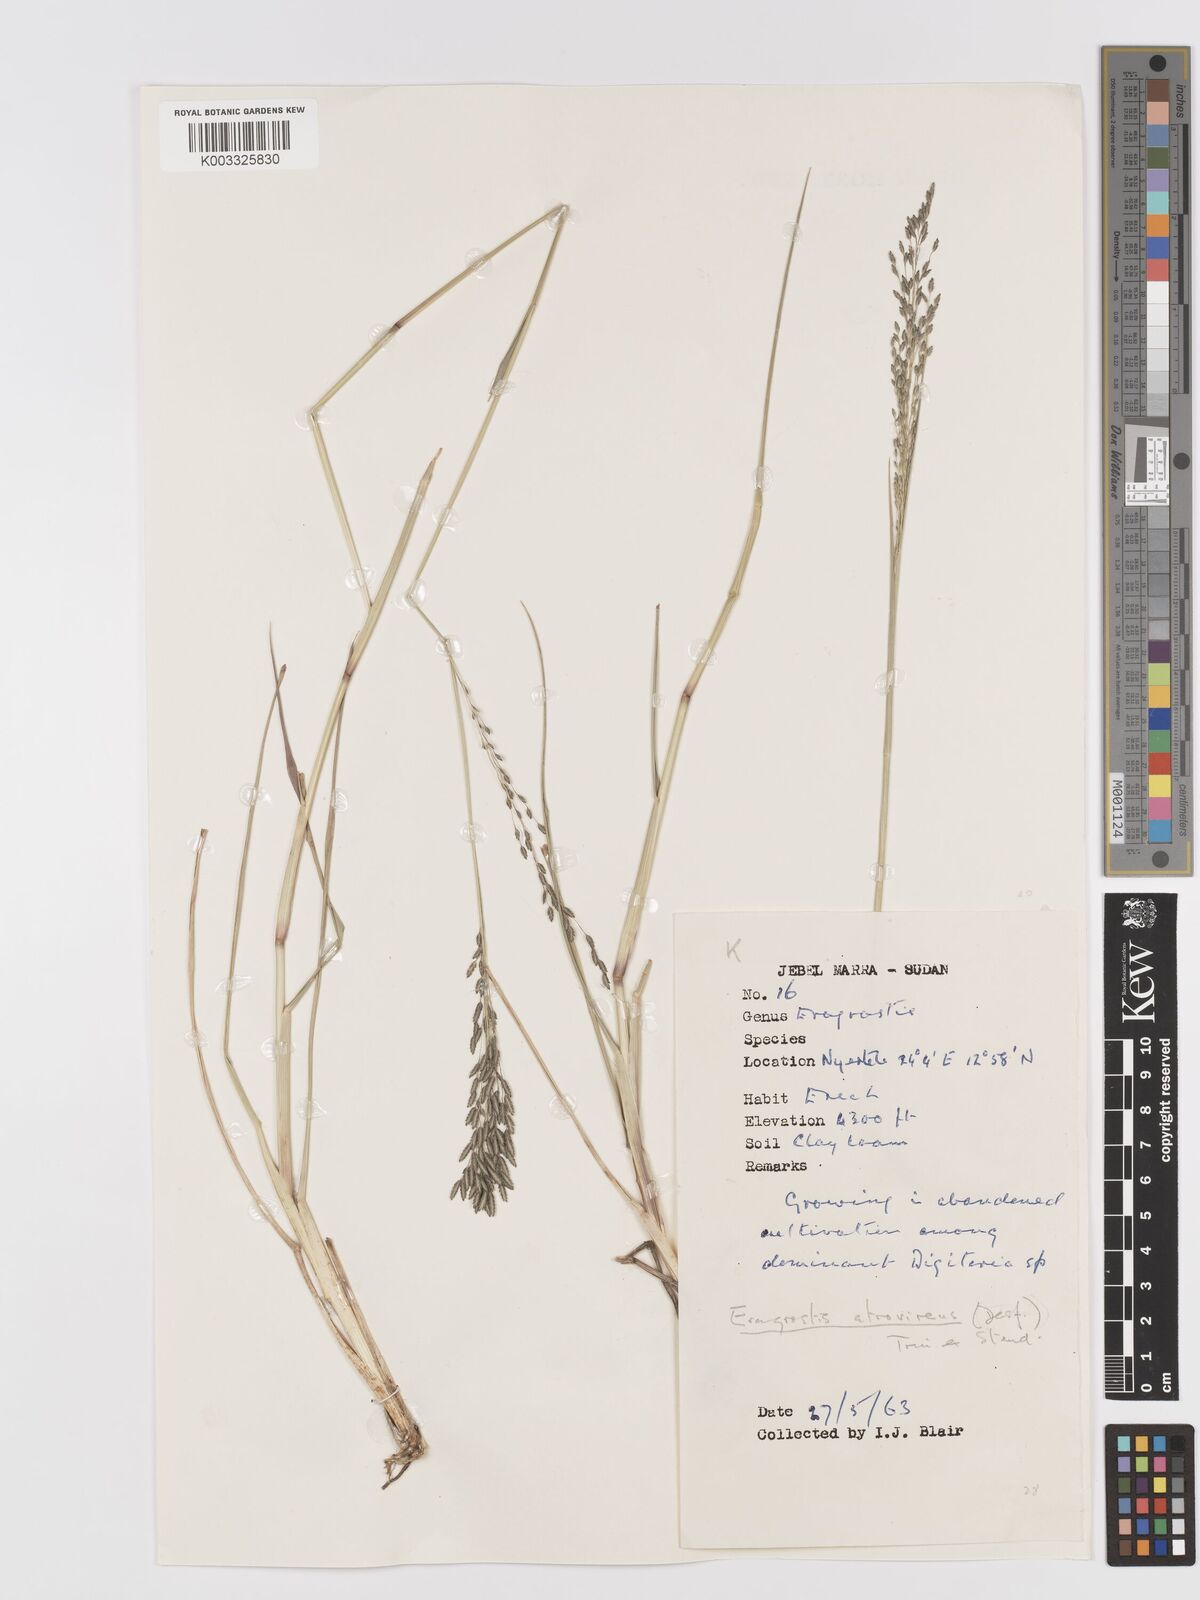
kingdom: Plantae
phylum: Tracheophyta
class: Liliopsida
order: Poales
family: Poaceae
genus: Eragrostis
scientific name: Eragrostis atrovirens
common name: Thalia lovegrass
